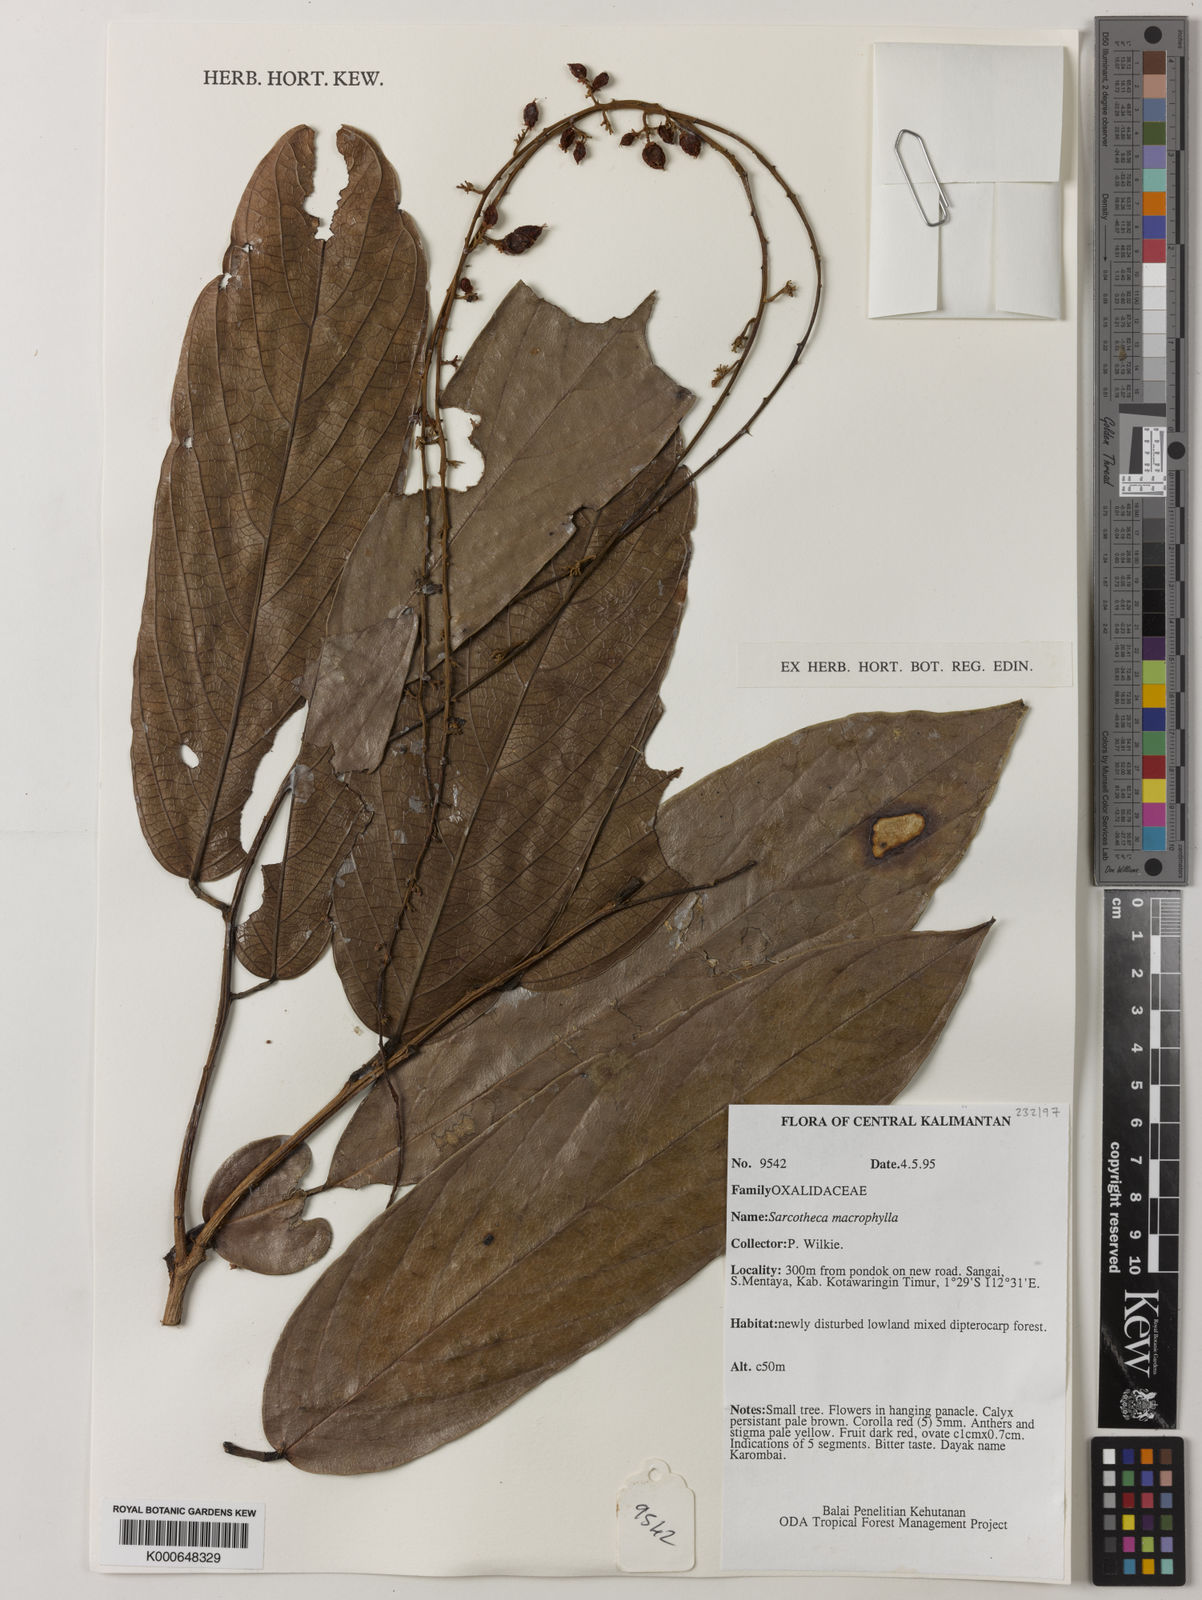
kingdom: Plantae
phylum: Tracheophyta
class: Magnoliopsida
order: Oxalidales
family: Oxalidaceae
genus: Sarcotheca
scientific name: Sarcotheca macrophylla
